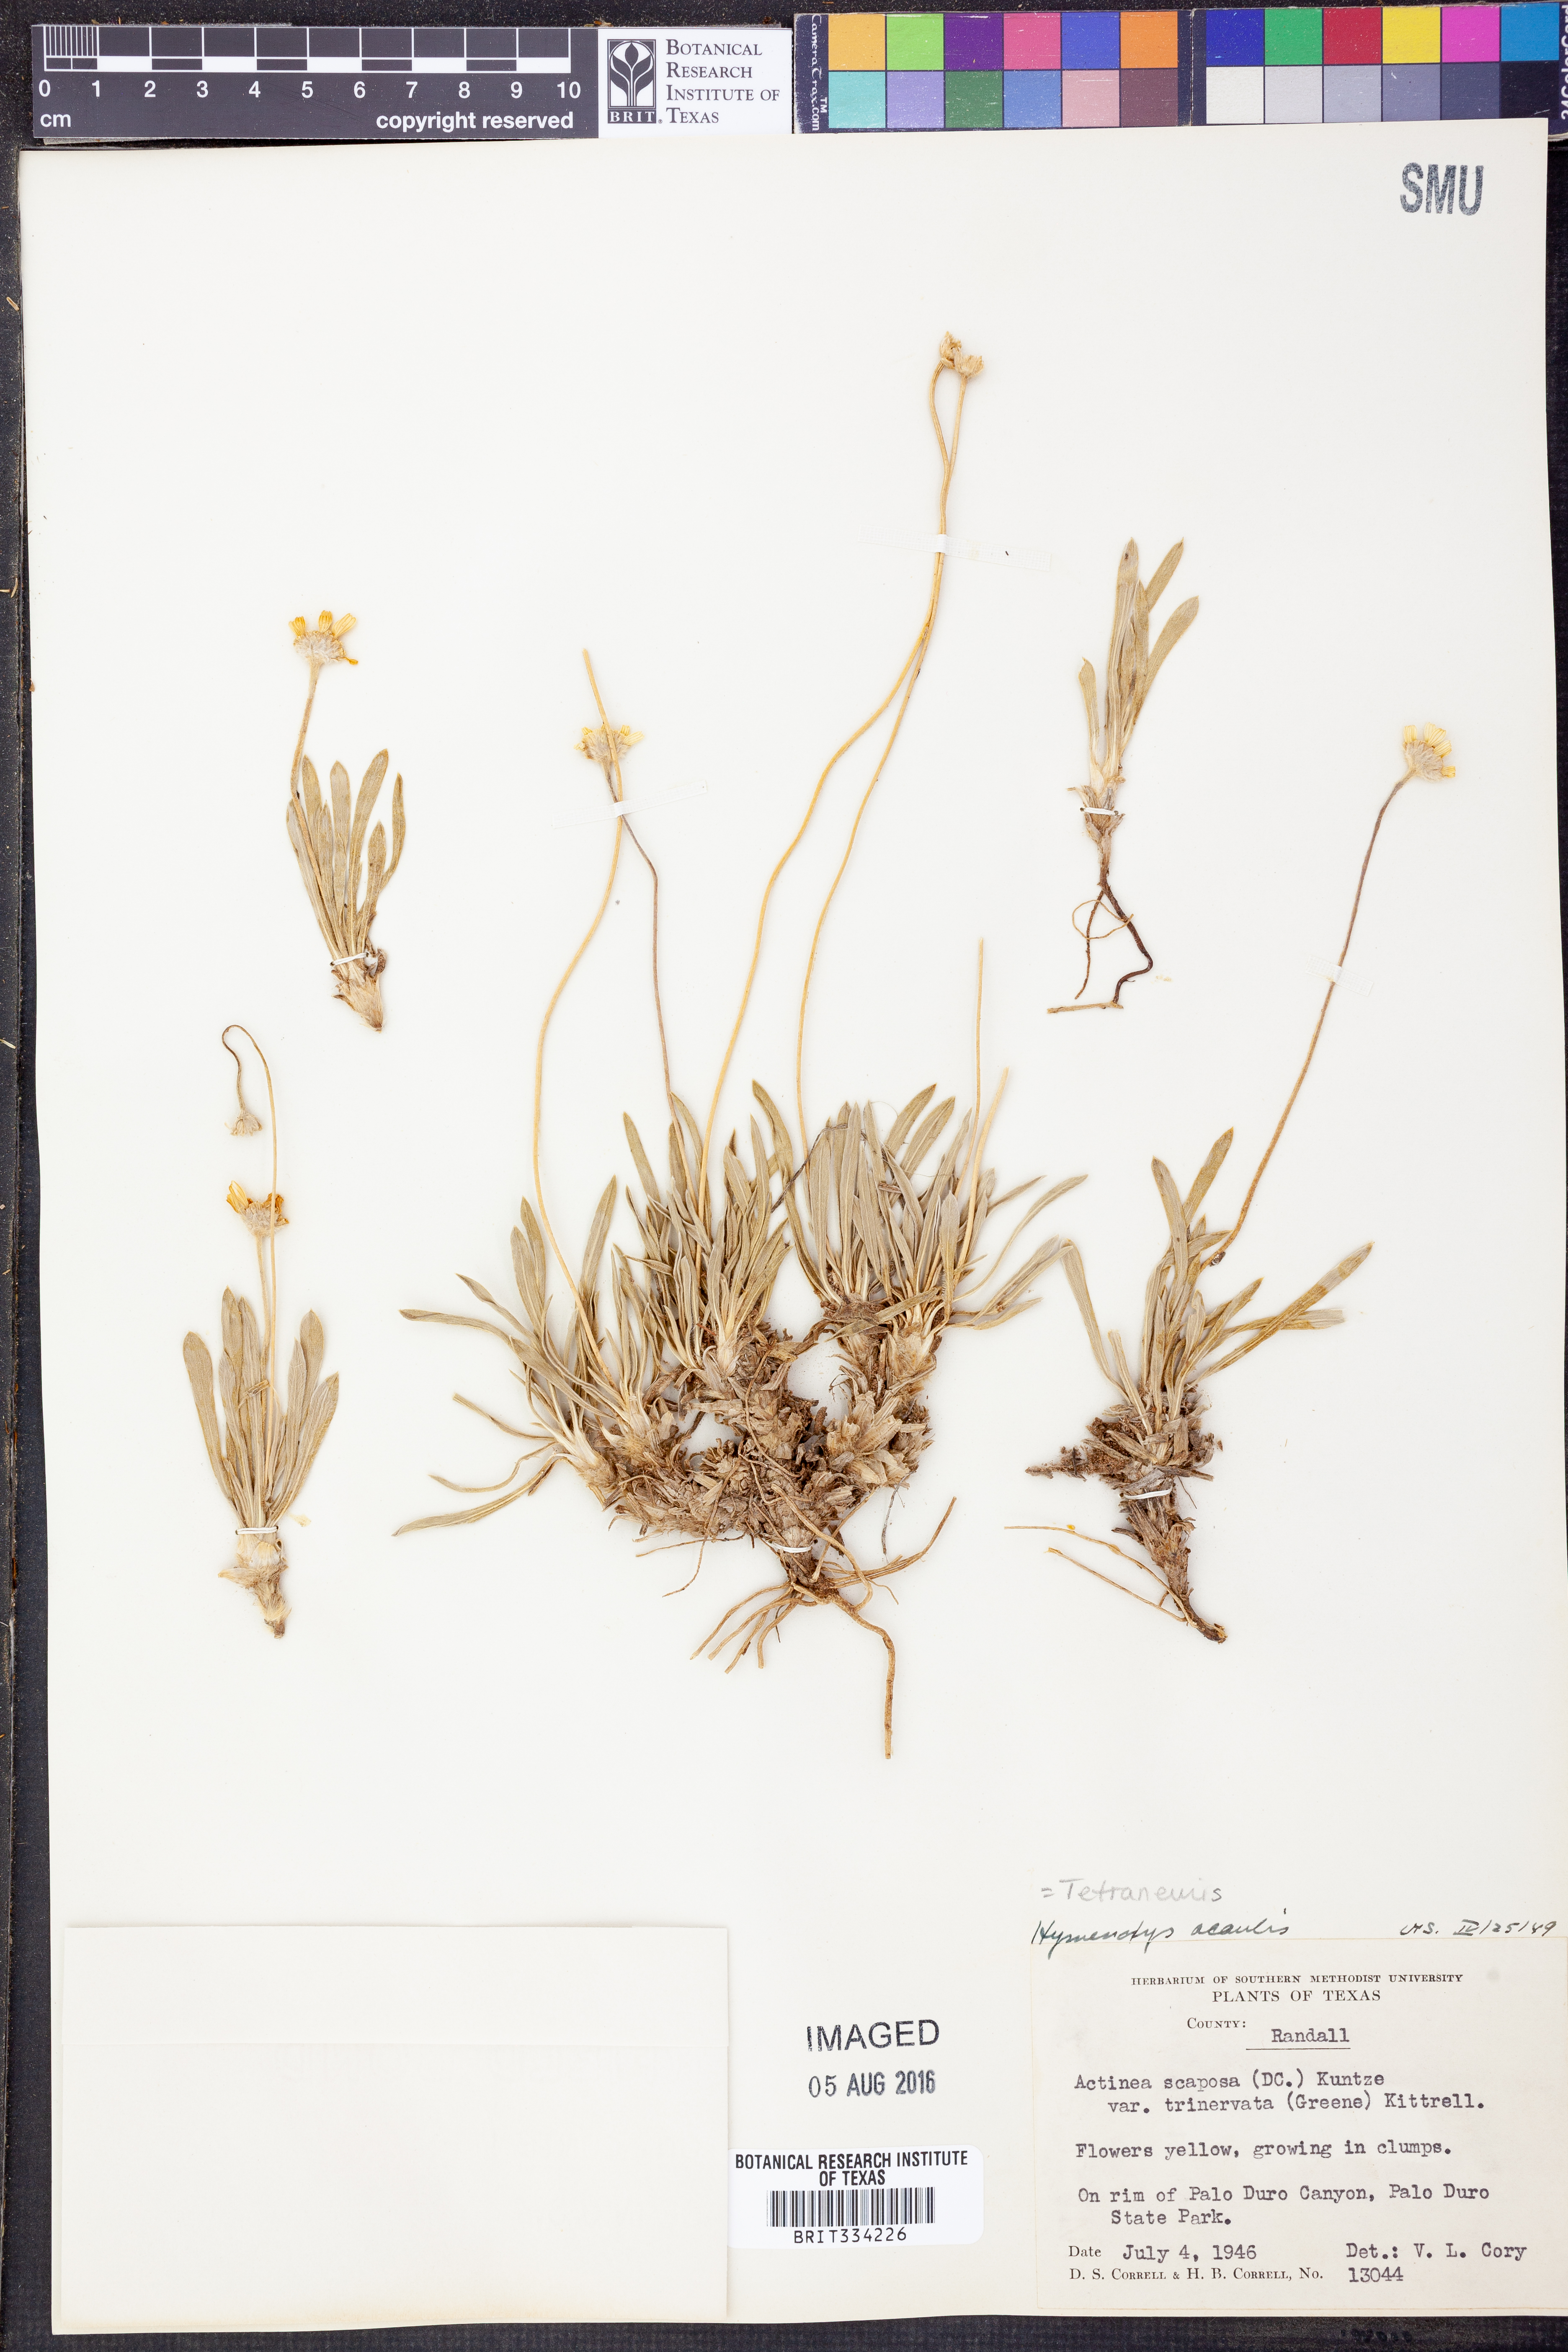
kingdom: Plantae
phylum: Tracheophyta
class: Magnoliopsida
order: Asterales
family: Asteraceae
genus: Tetraneuris
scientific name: Tetraneuris acaulis
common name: Butte marigold
